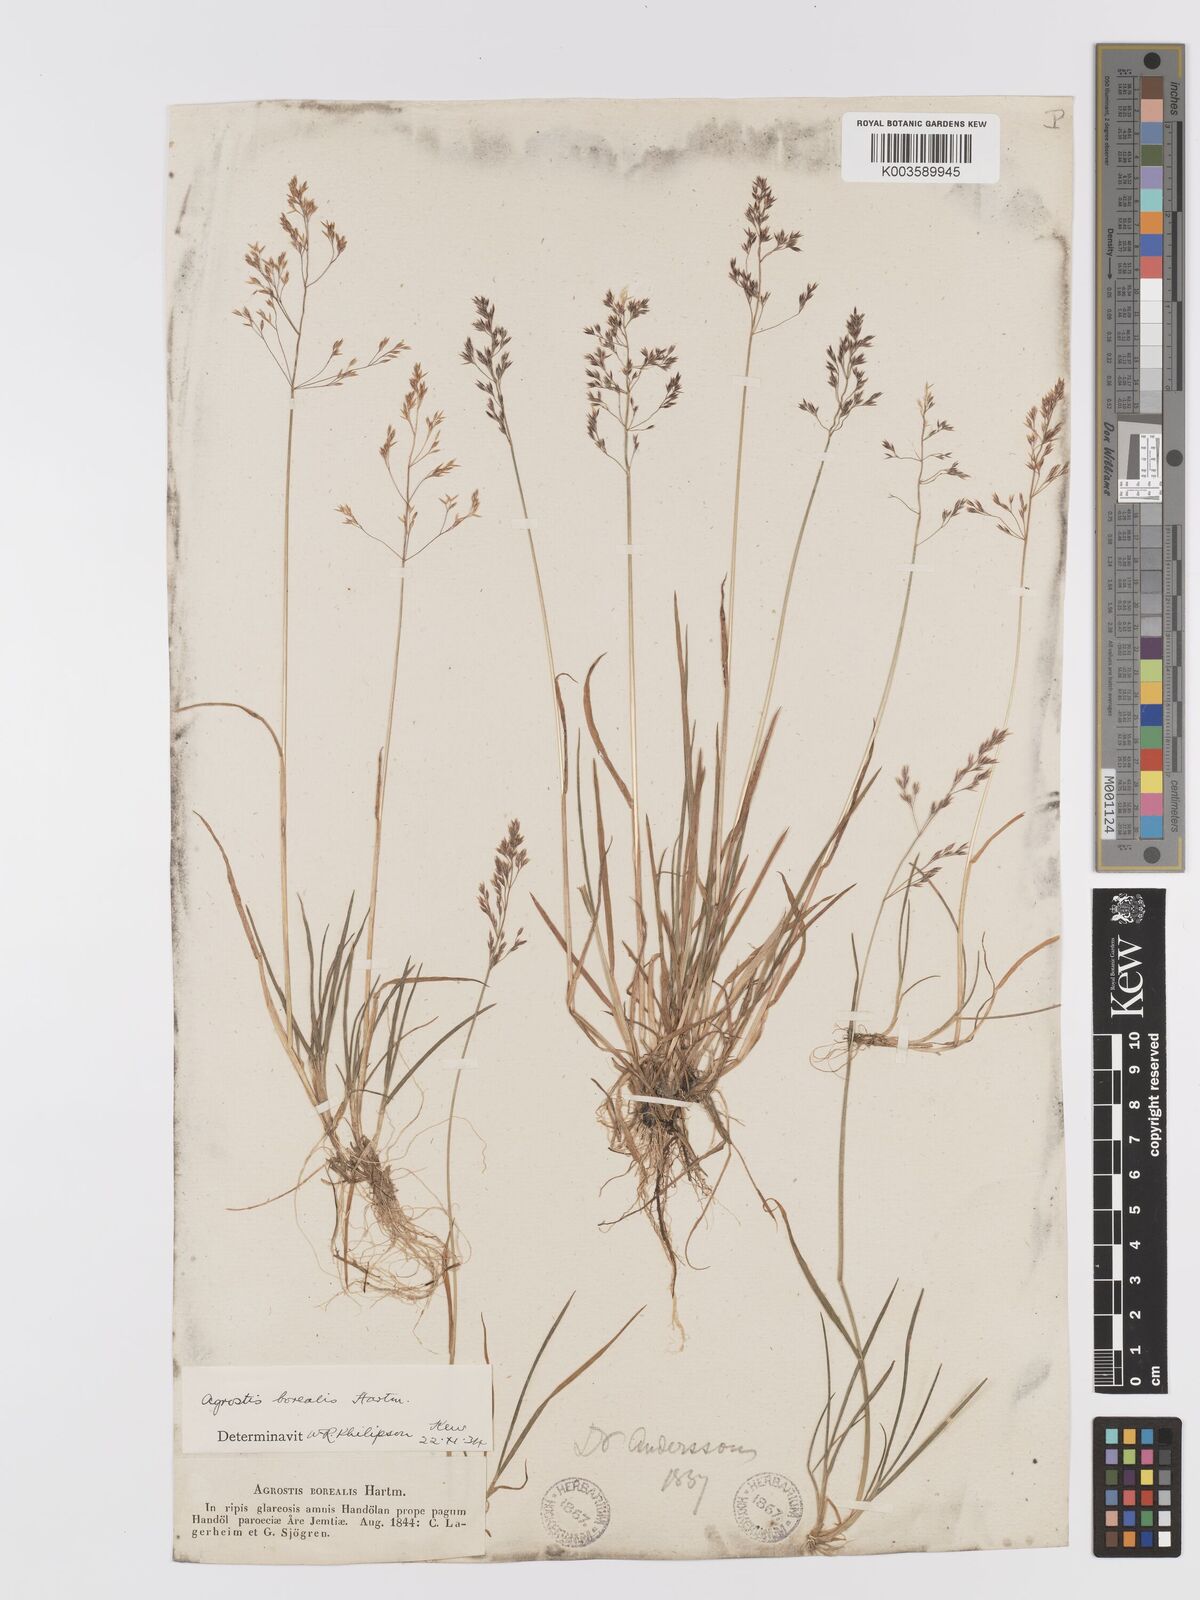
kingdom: Plantae
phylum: Tracheophyta
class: Liliopsida
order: Poales
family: Poaceae
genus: Agrostis
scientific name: Agrostis mertensii
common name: Northern bent
